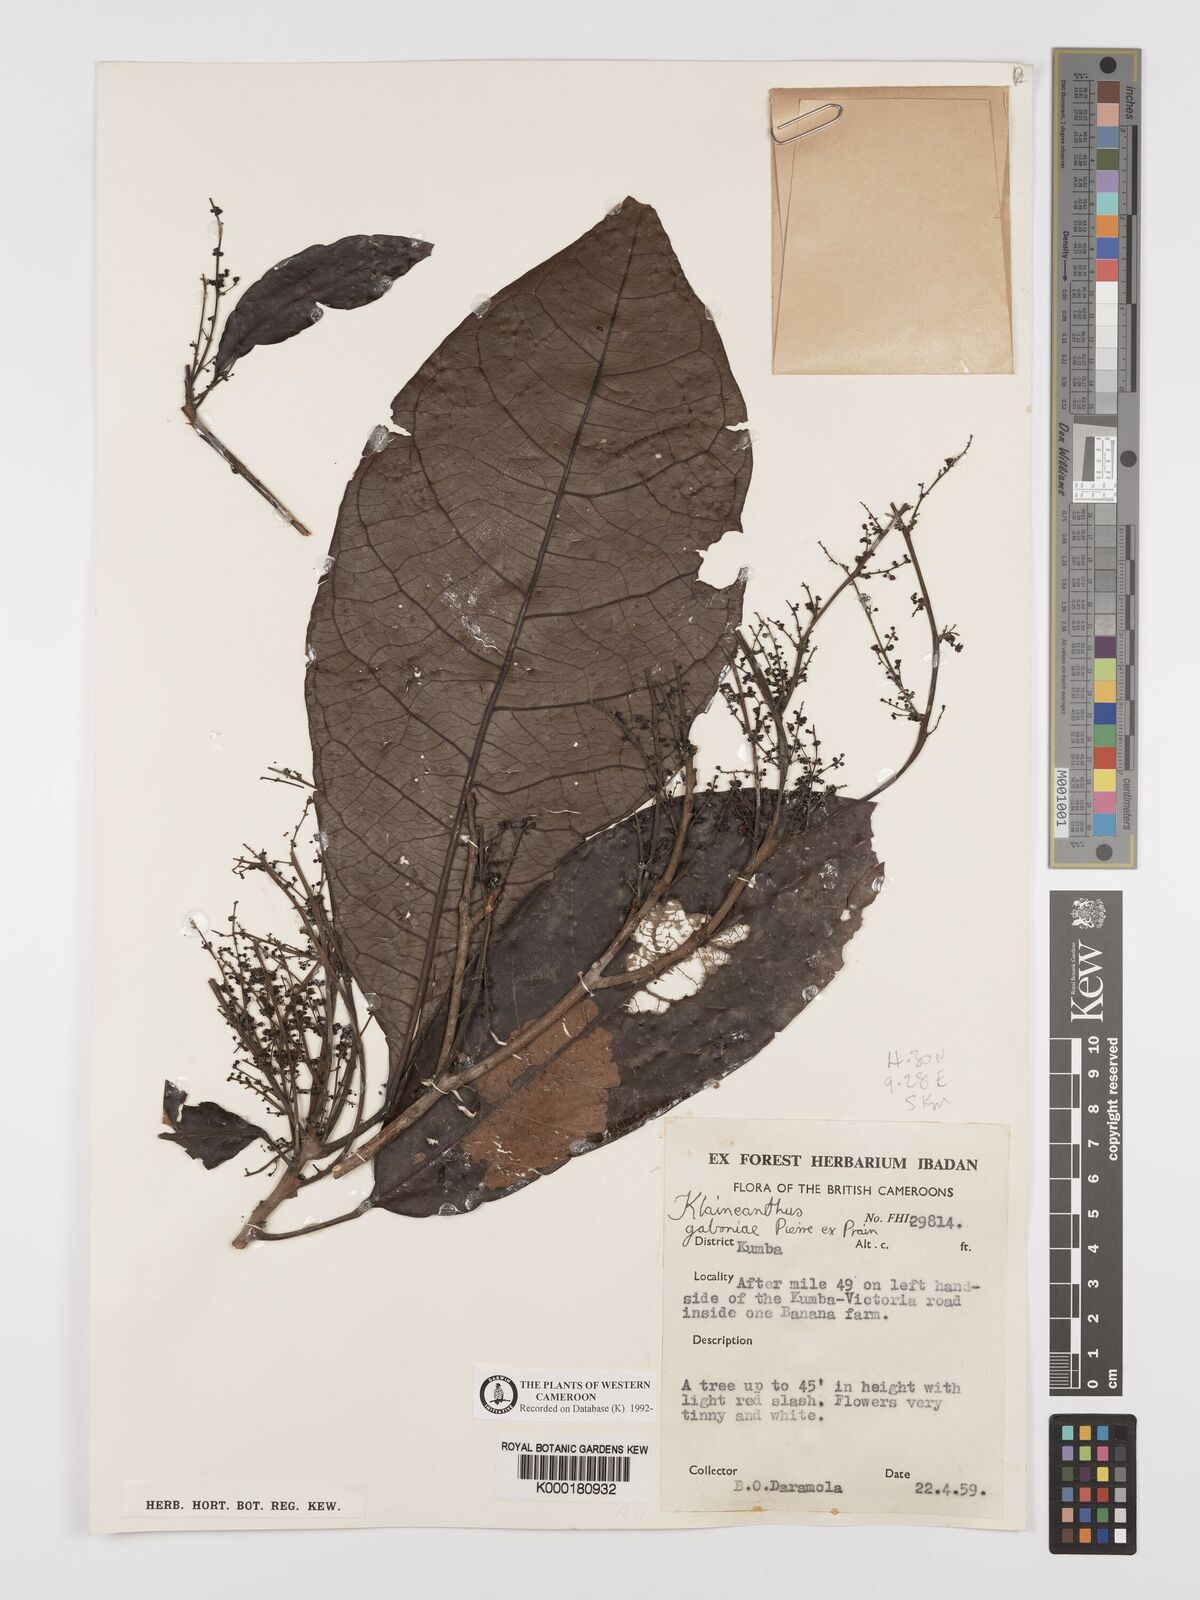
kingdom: Plantae
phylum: Tracheophyta
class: Magnoliopsida
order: Malpighiales
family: Euphorbiaceae
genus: Klaineanthus
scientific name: Klaineanthus
